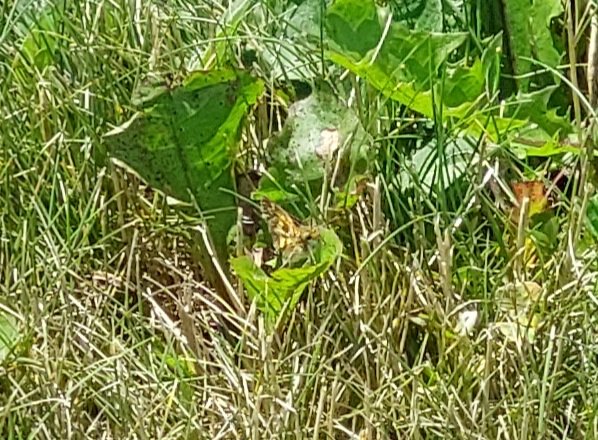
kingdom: Animalia
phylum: Arthropoda
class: Insecta
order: Lepidoptera
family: Hesperiidae
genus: Polites
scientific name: Polites coras
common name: Peck's Skipper
